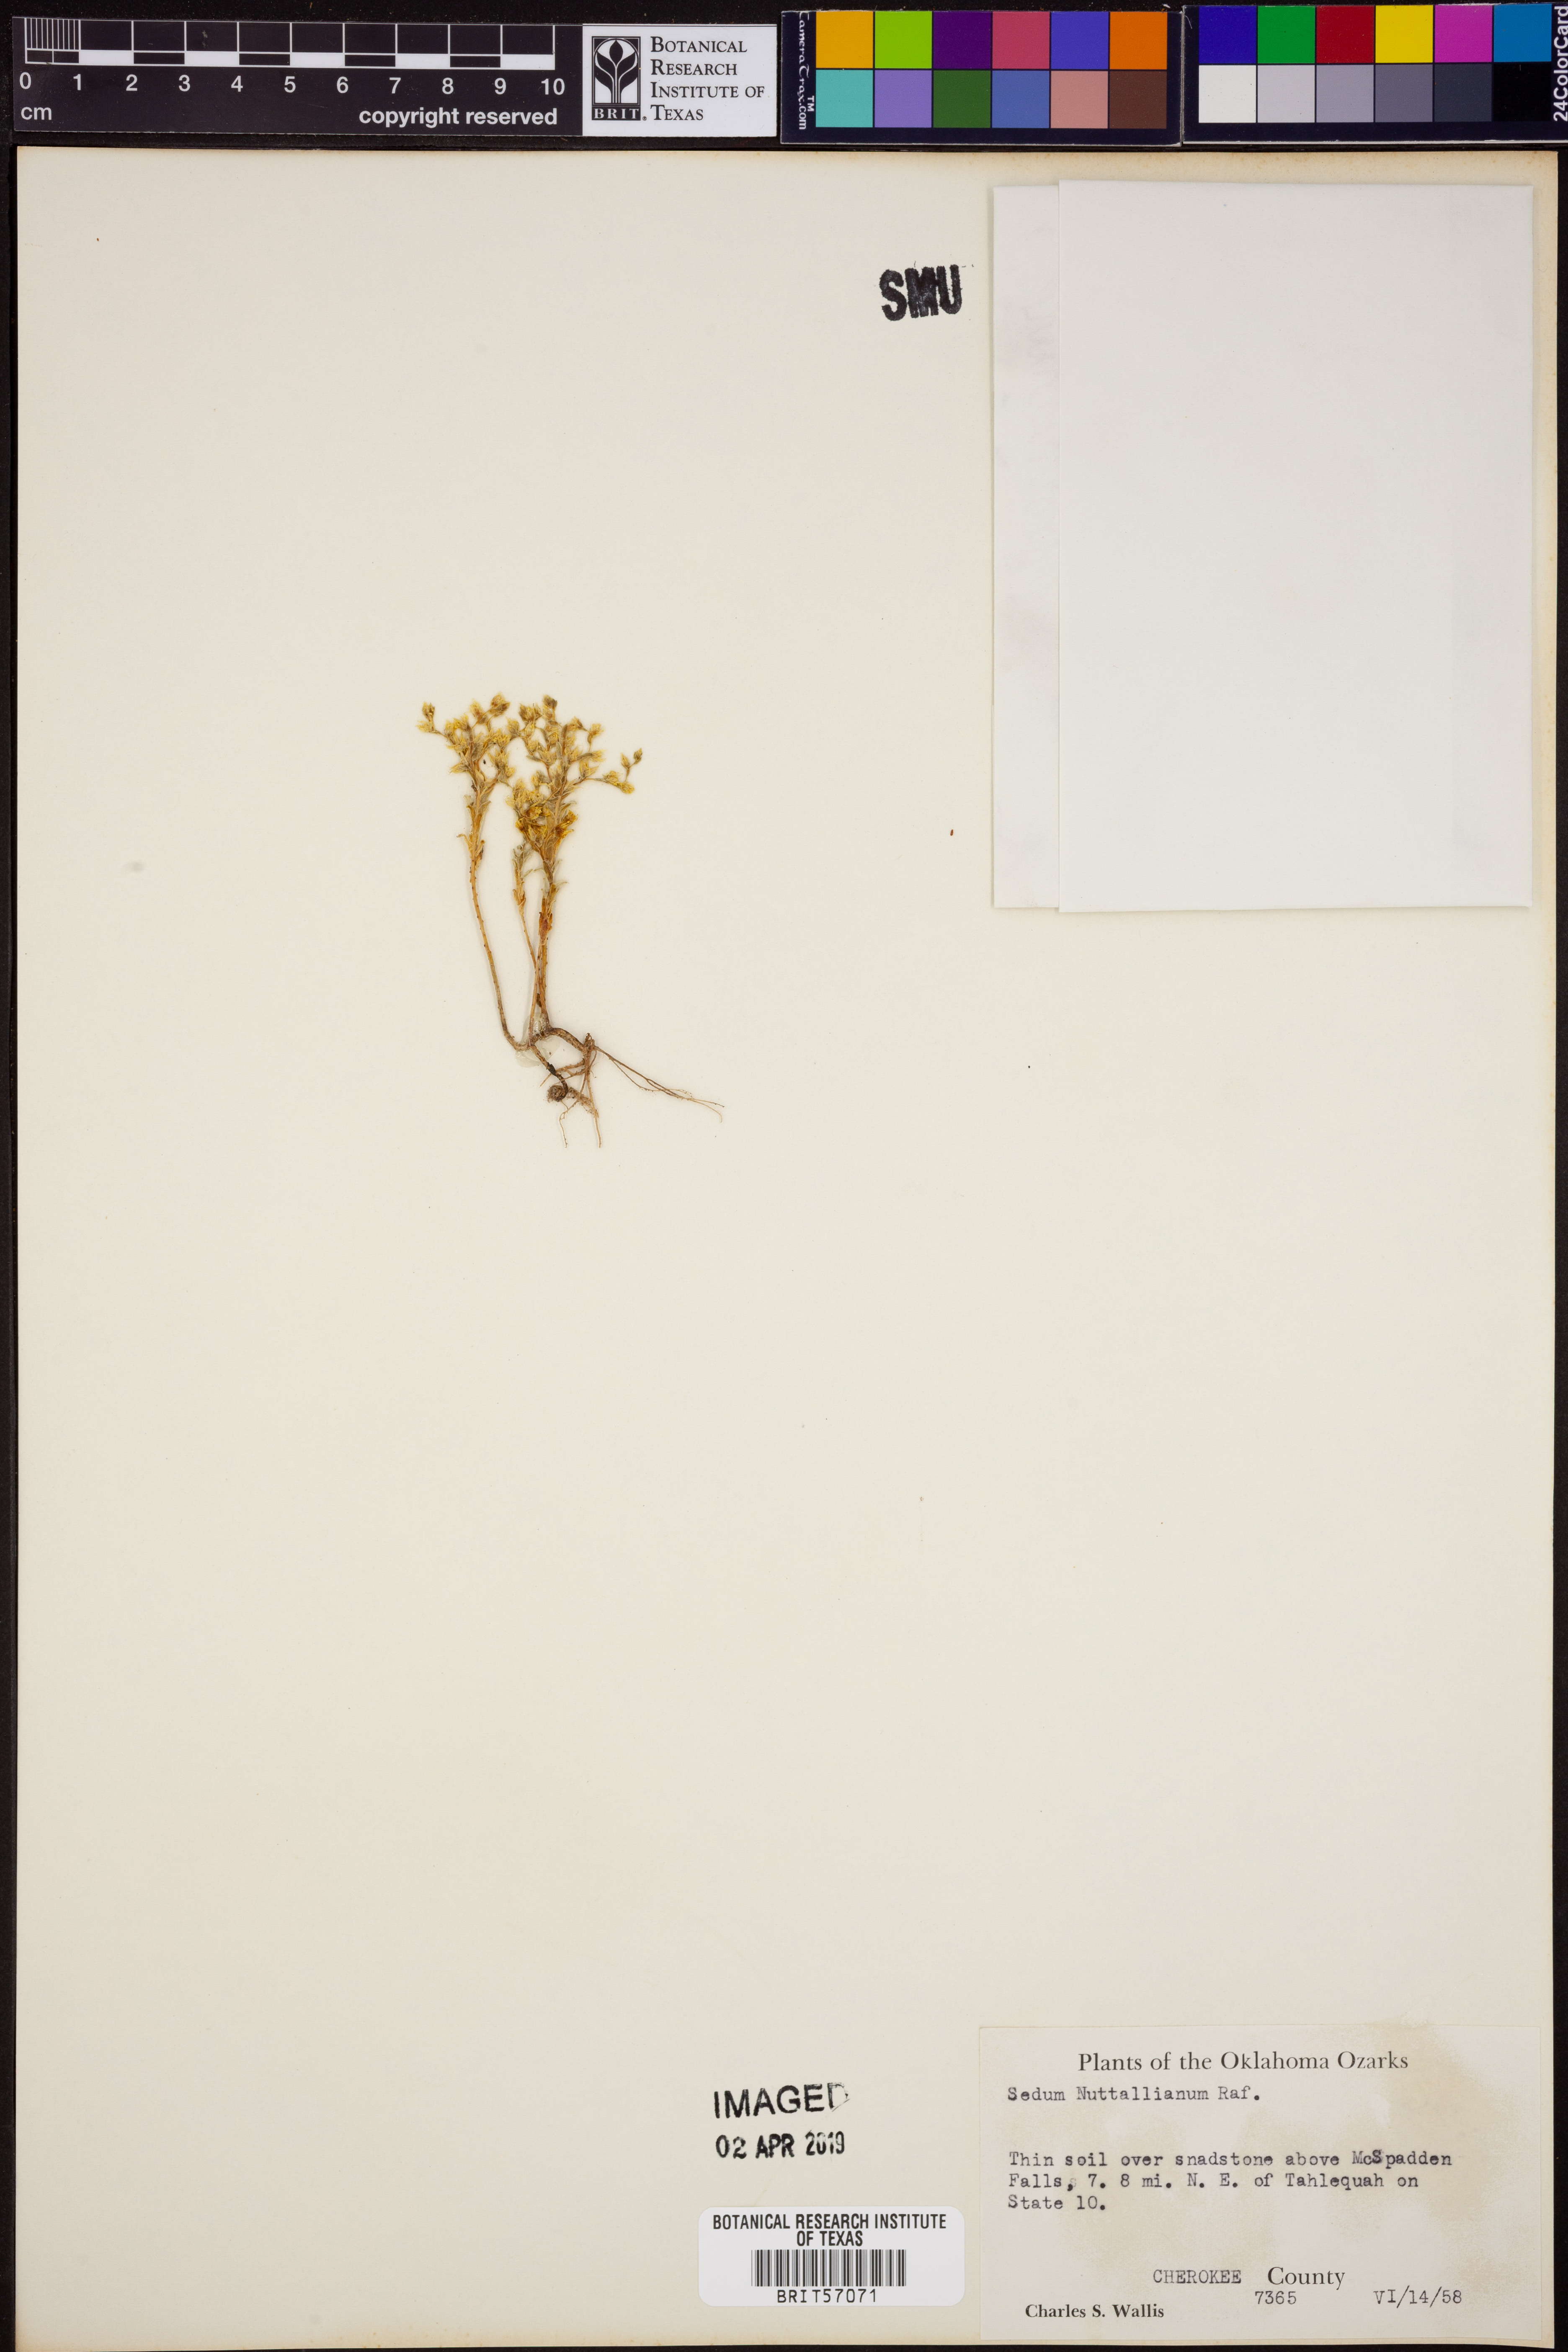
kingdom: Plantae
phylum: Tracheophyta
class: Magnoliopsida
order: Saxifragales
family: Crassulaceae
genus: Sedum
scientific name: Sedum nuttallii
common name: Yellow stonecrop
